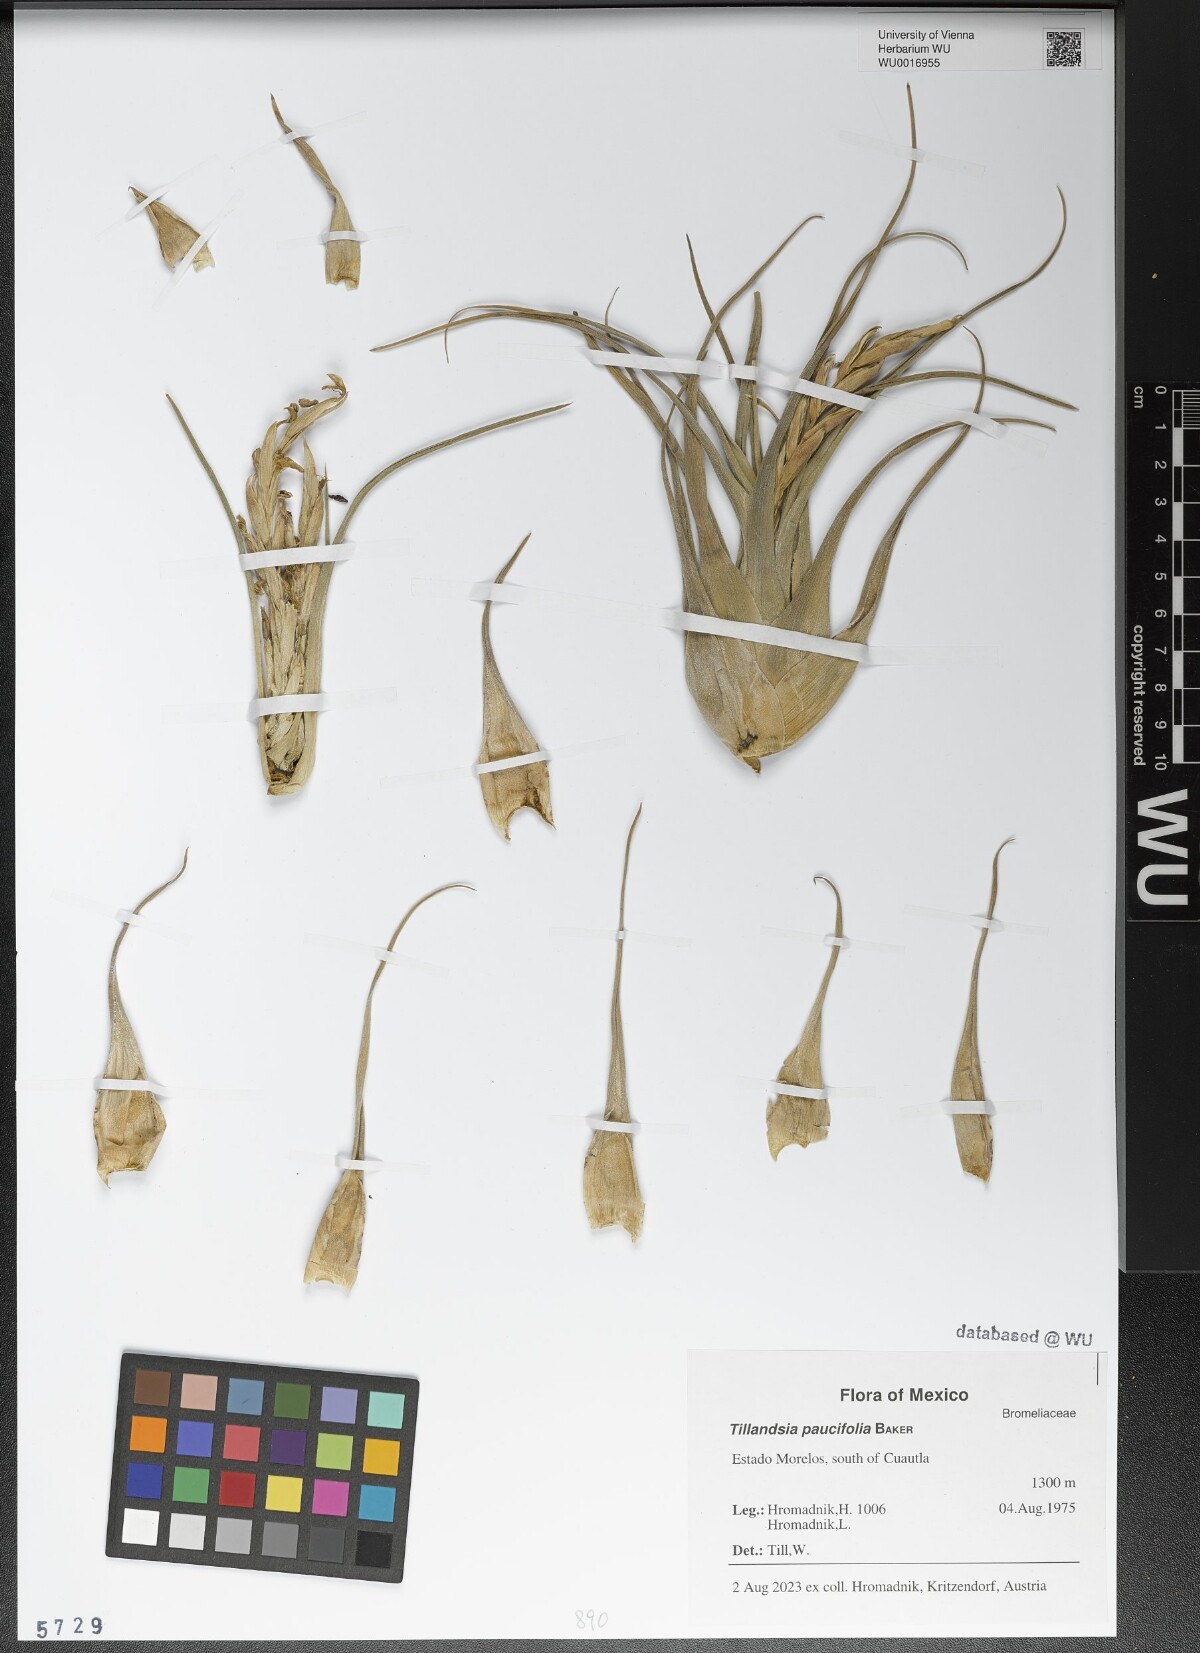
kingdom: Plantae
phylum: Tracheophyta
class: Liliopsida
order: Poales
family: Bromeliaceae
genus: Tillandsia
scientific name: Tillandsia paucifolia
